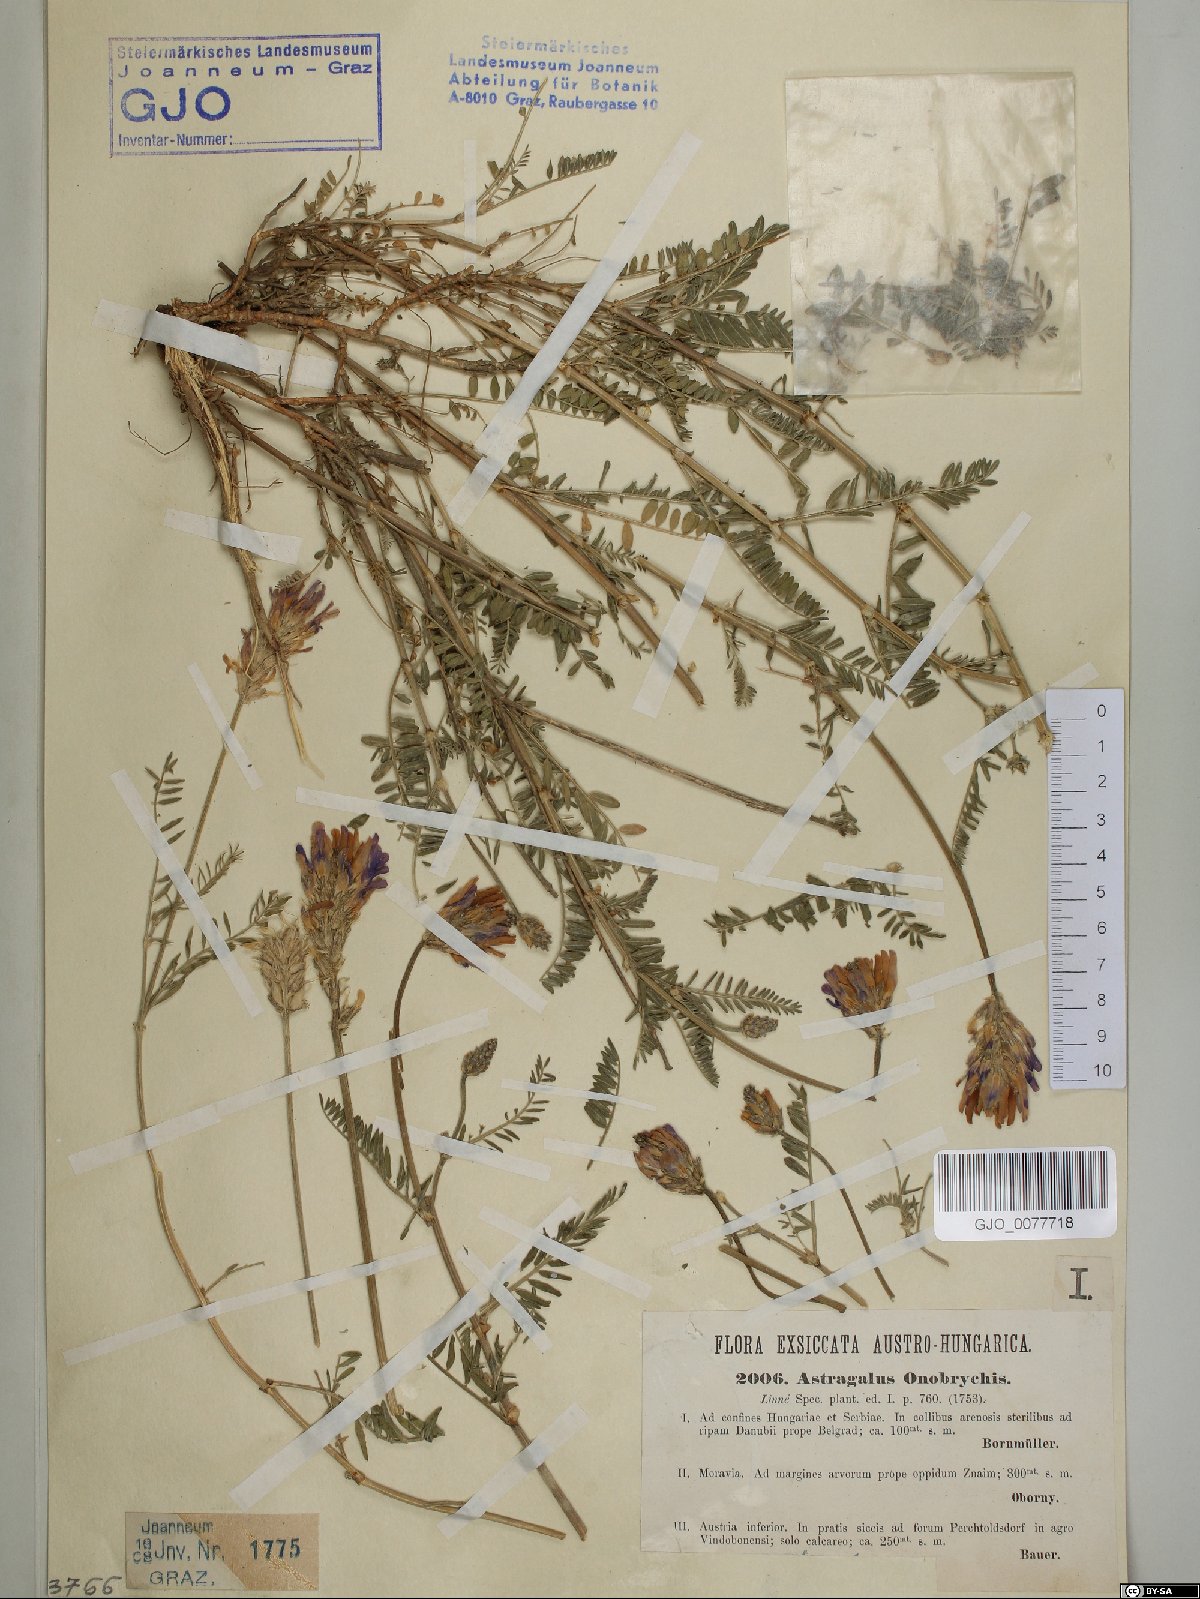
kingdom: Plantae
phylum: Tracheophyta
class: Magnoliopsida
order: Fabales
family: Fabaceae
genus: Astragalus
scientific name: Astragalus onobrychis
